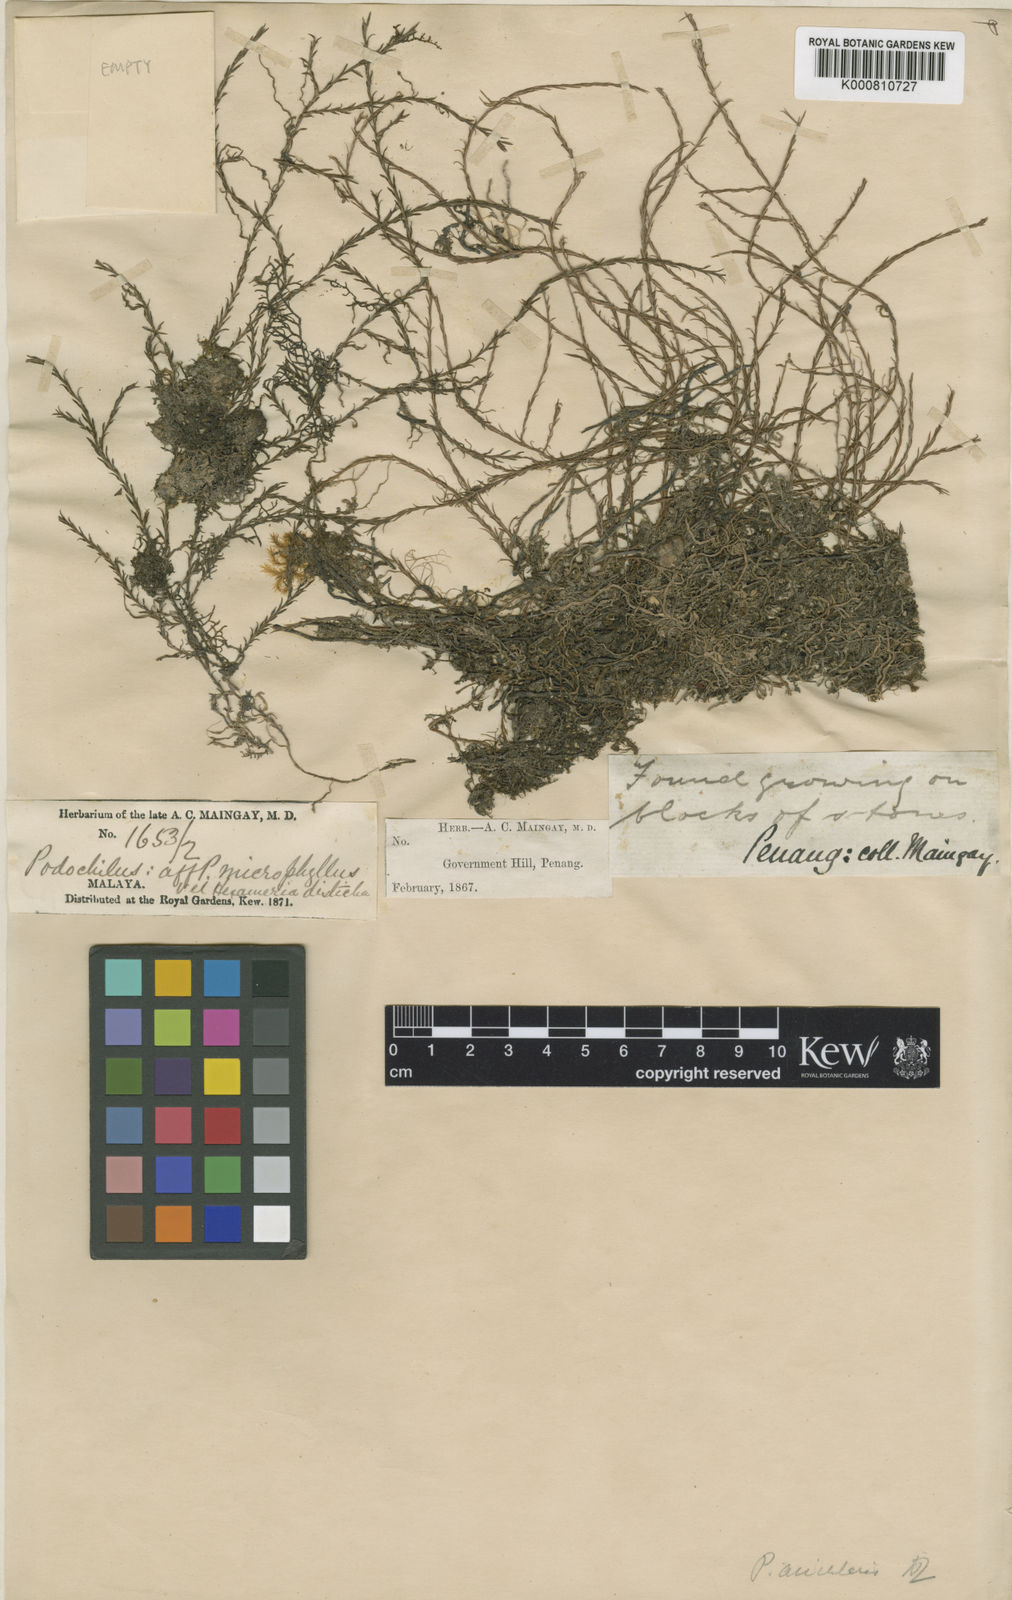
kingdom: Plantae
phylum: Tracheophyta
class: Liliopsida
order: Asparagales
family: Orchidaceae
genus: Podochilus
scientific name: Podochilus tenuis
